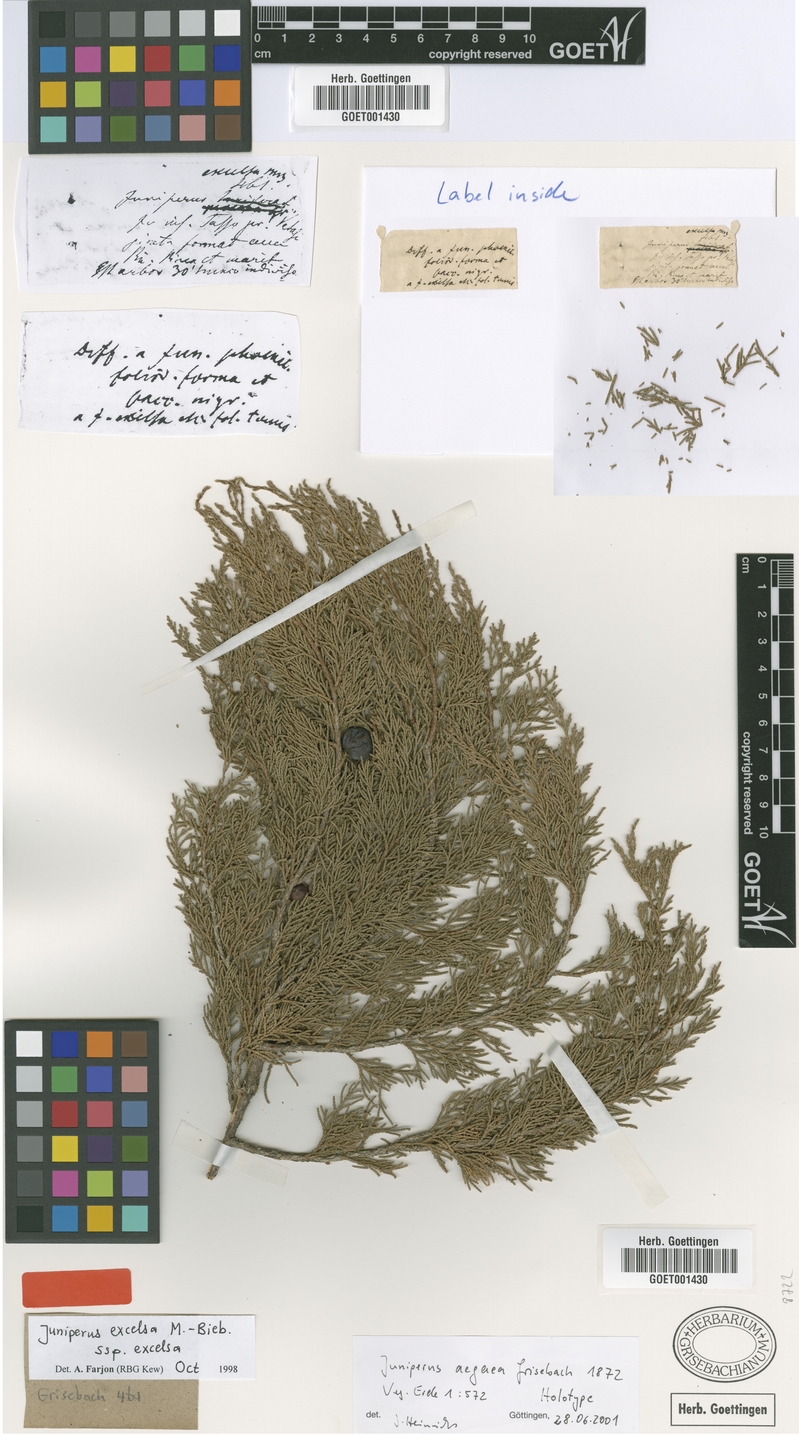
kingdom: Plantae
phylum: Tracheophyta
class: Pinopsida
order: Pinales
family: Cupressaceae
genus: Juniperus
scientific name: Juniperus excelsa
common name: Crimean juniper
